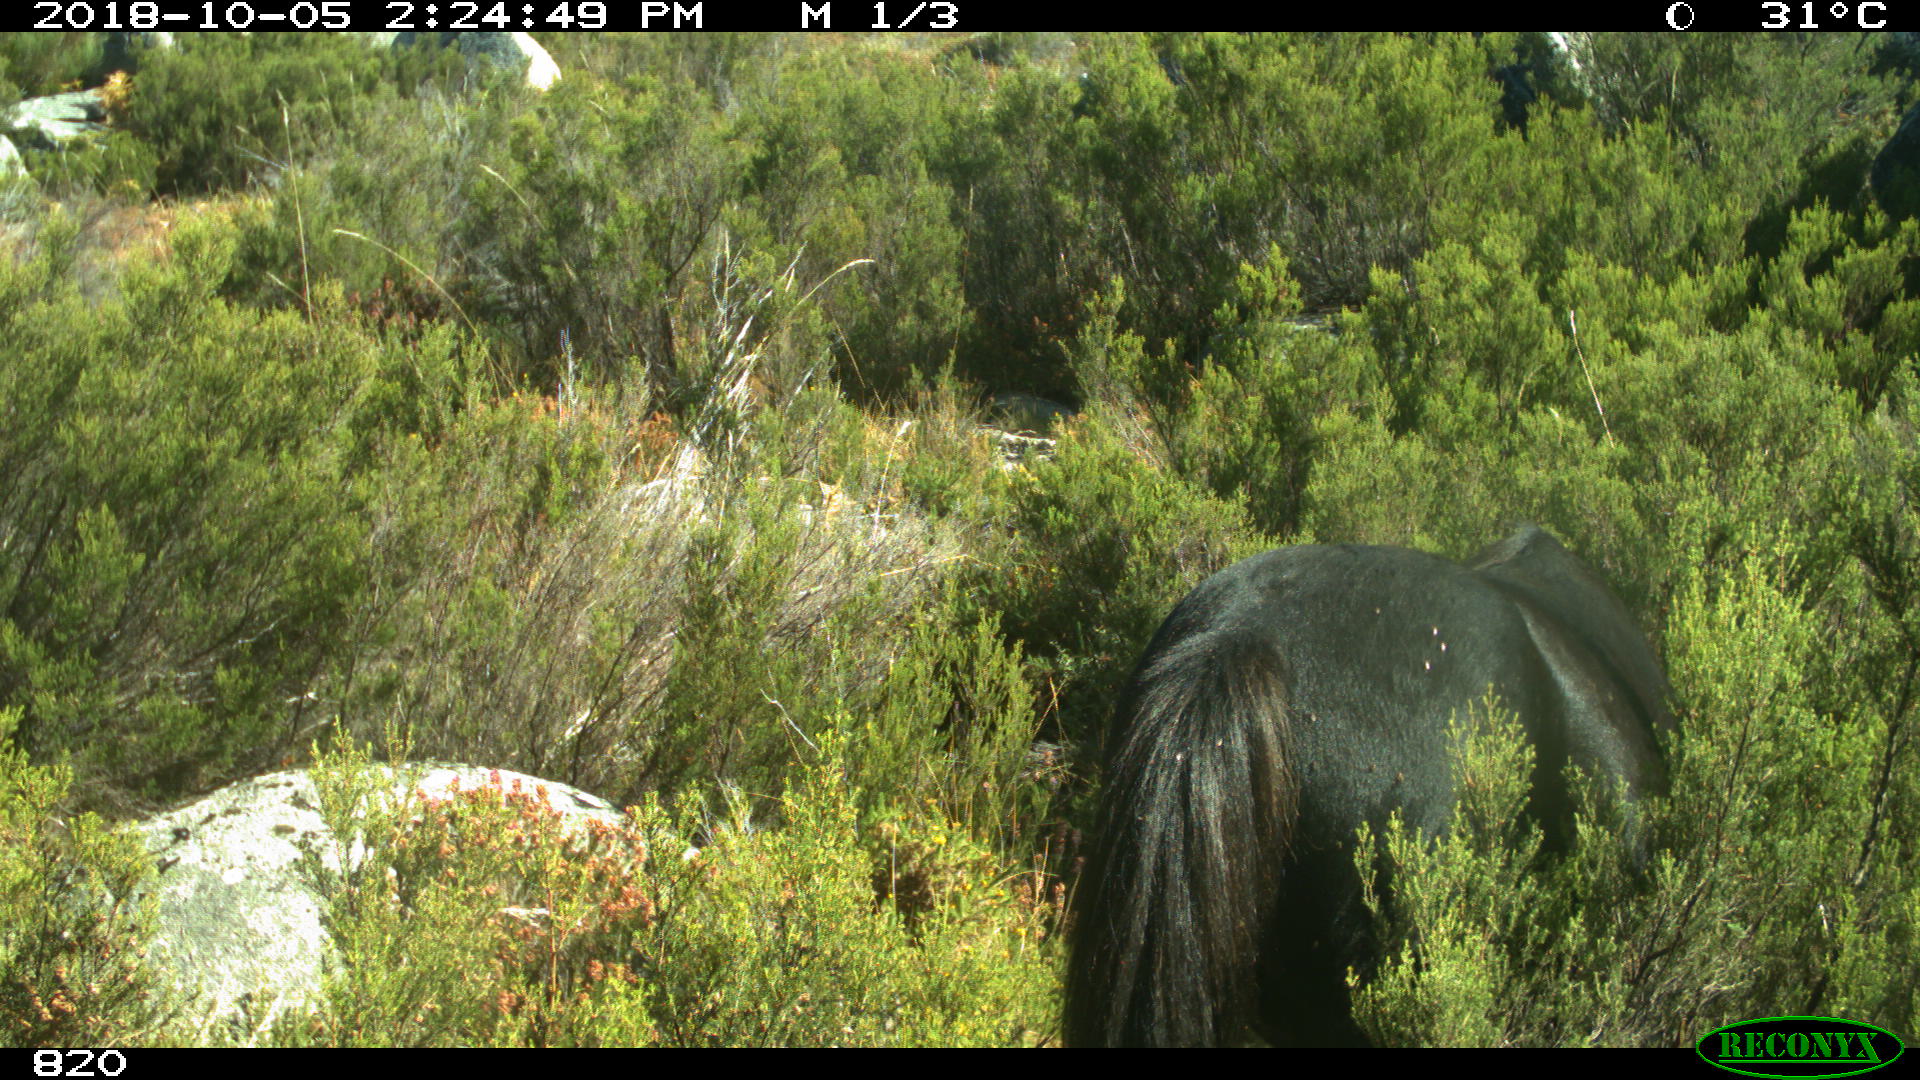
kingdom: Animalia
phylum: Chordata
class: Mammalia
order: Perissodactyla
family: Equidae
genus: Equus
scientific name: Equus caballus
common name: Horse
